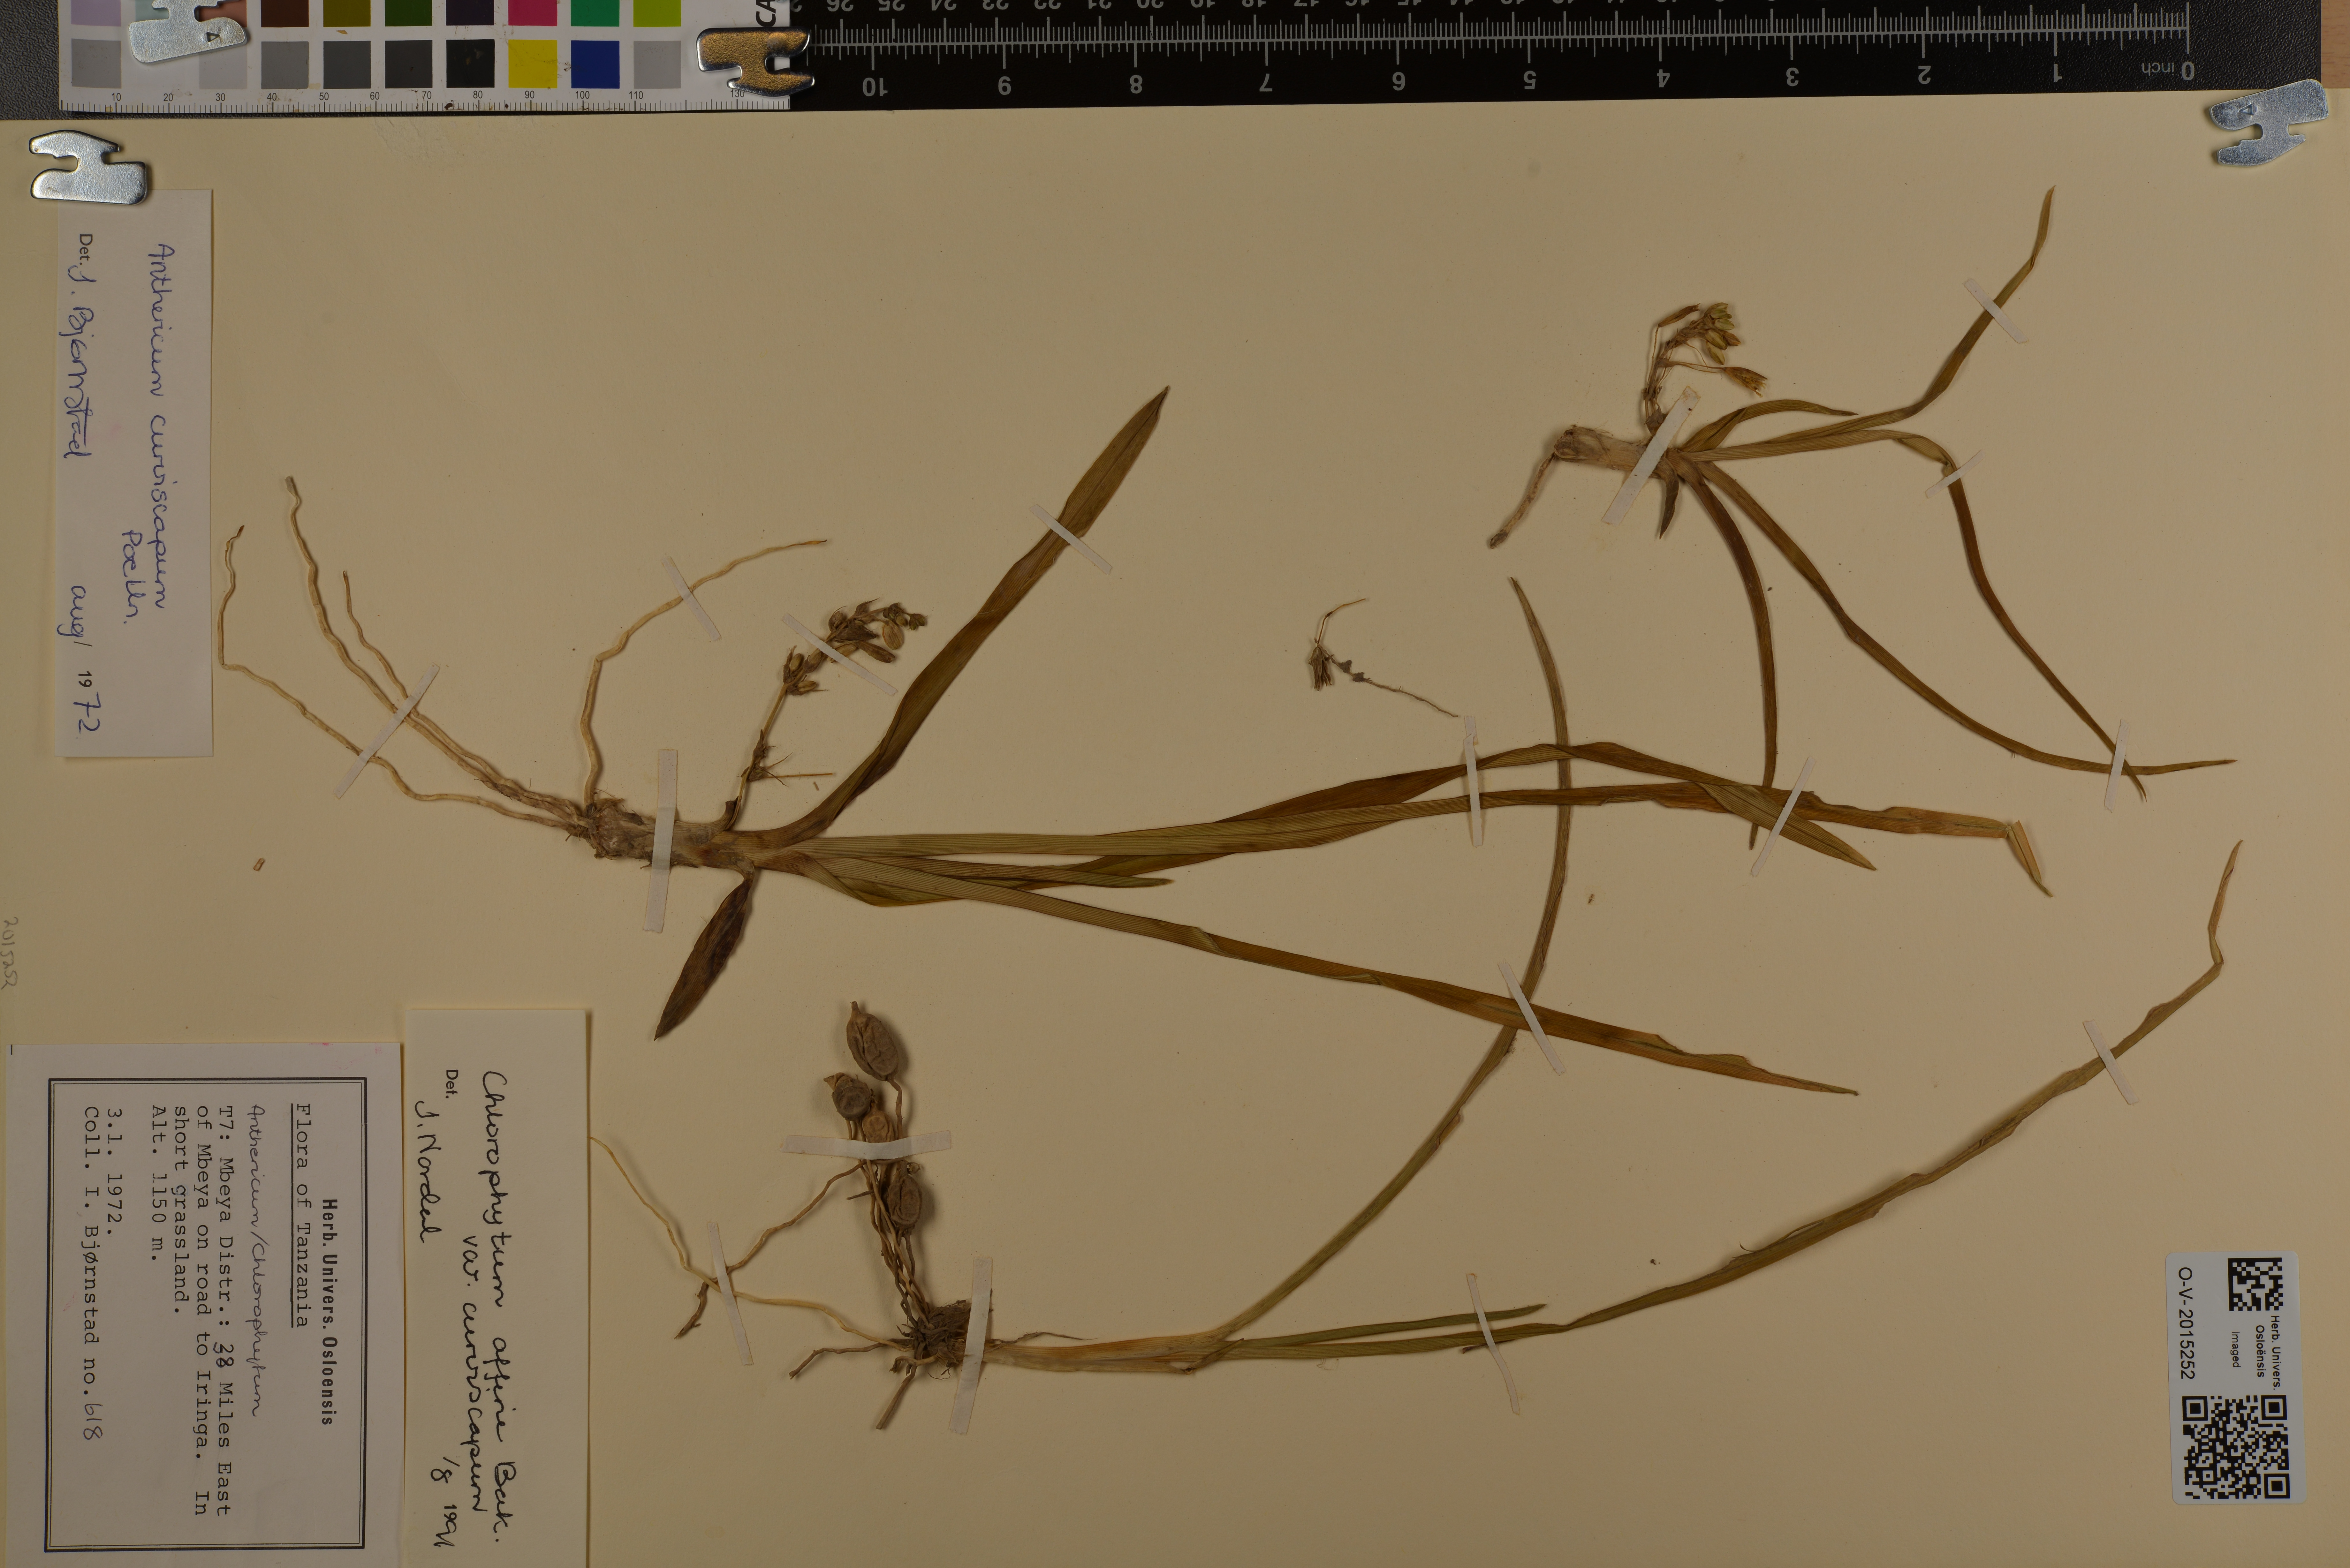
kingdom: Plantae
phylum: Tracheophyta
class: Liliopsida
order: Asparagales
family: Asparagaceae
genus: Chlorophytum
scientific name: Chlorophytum tordense
